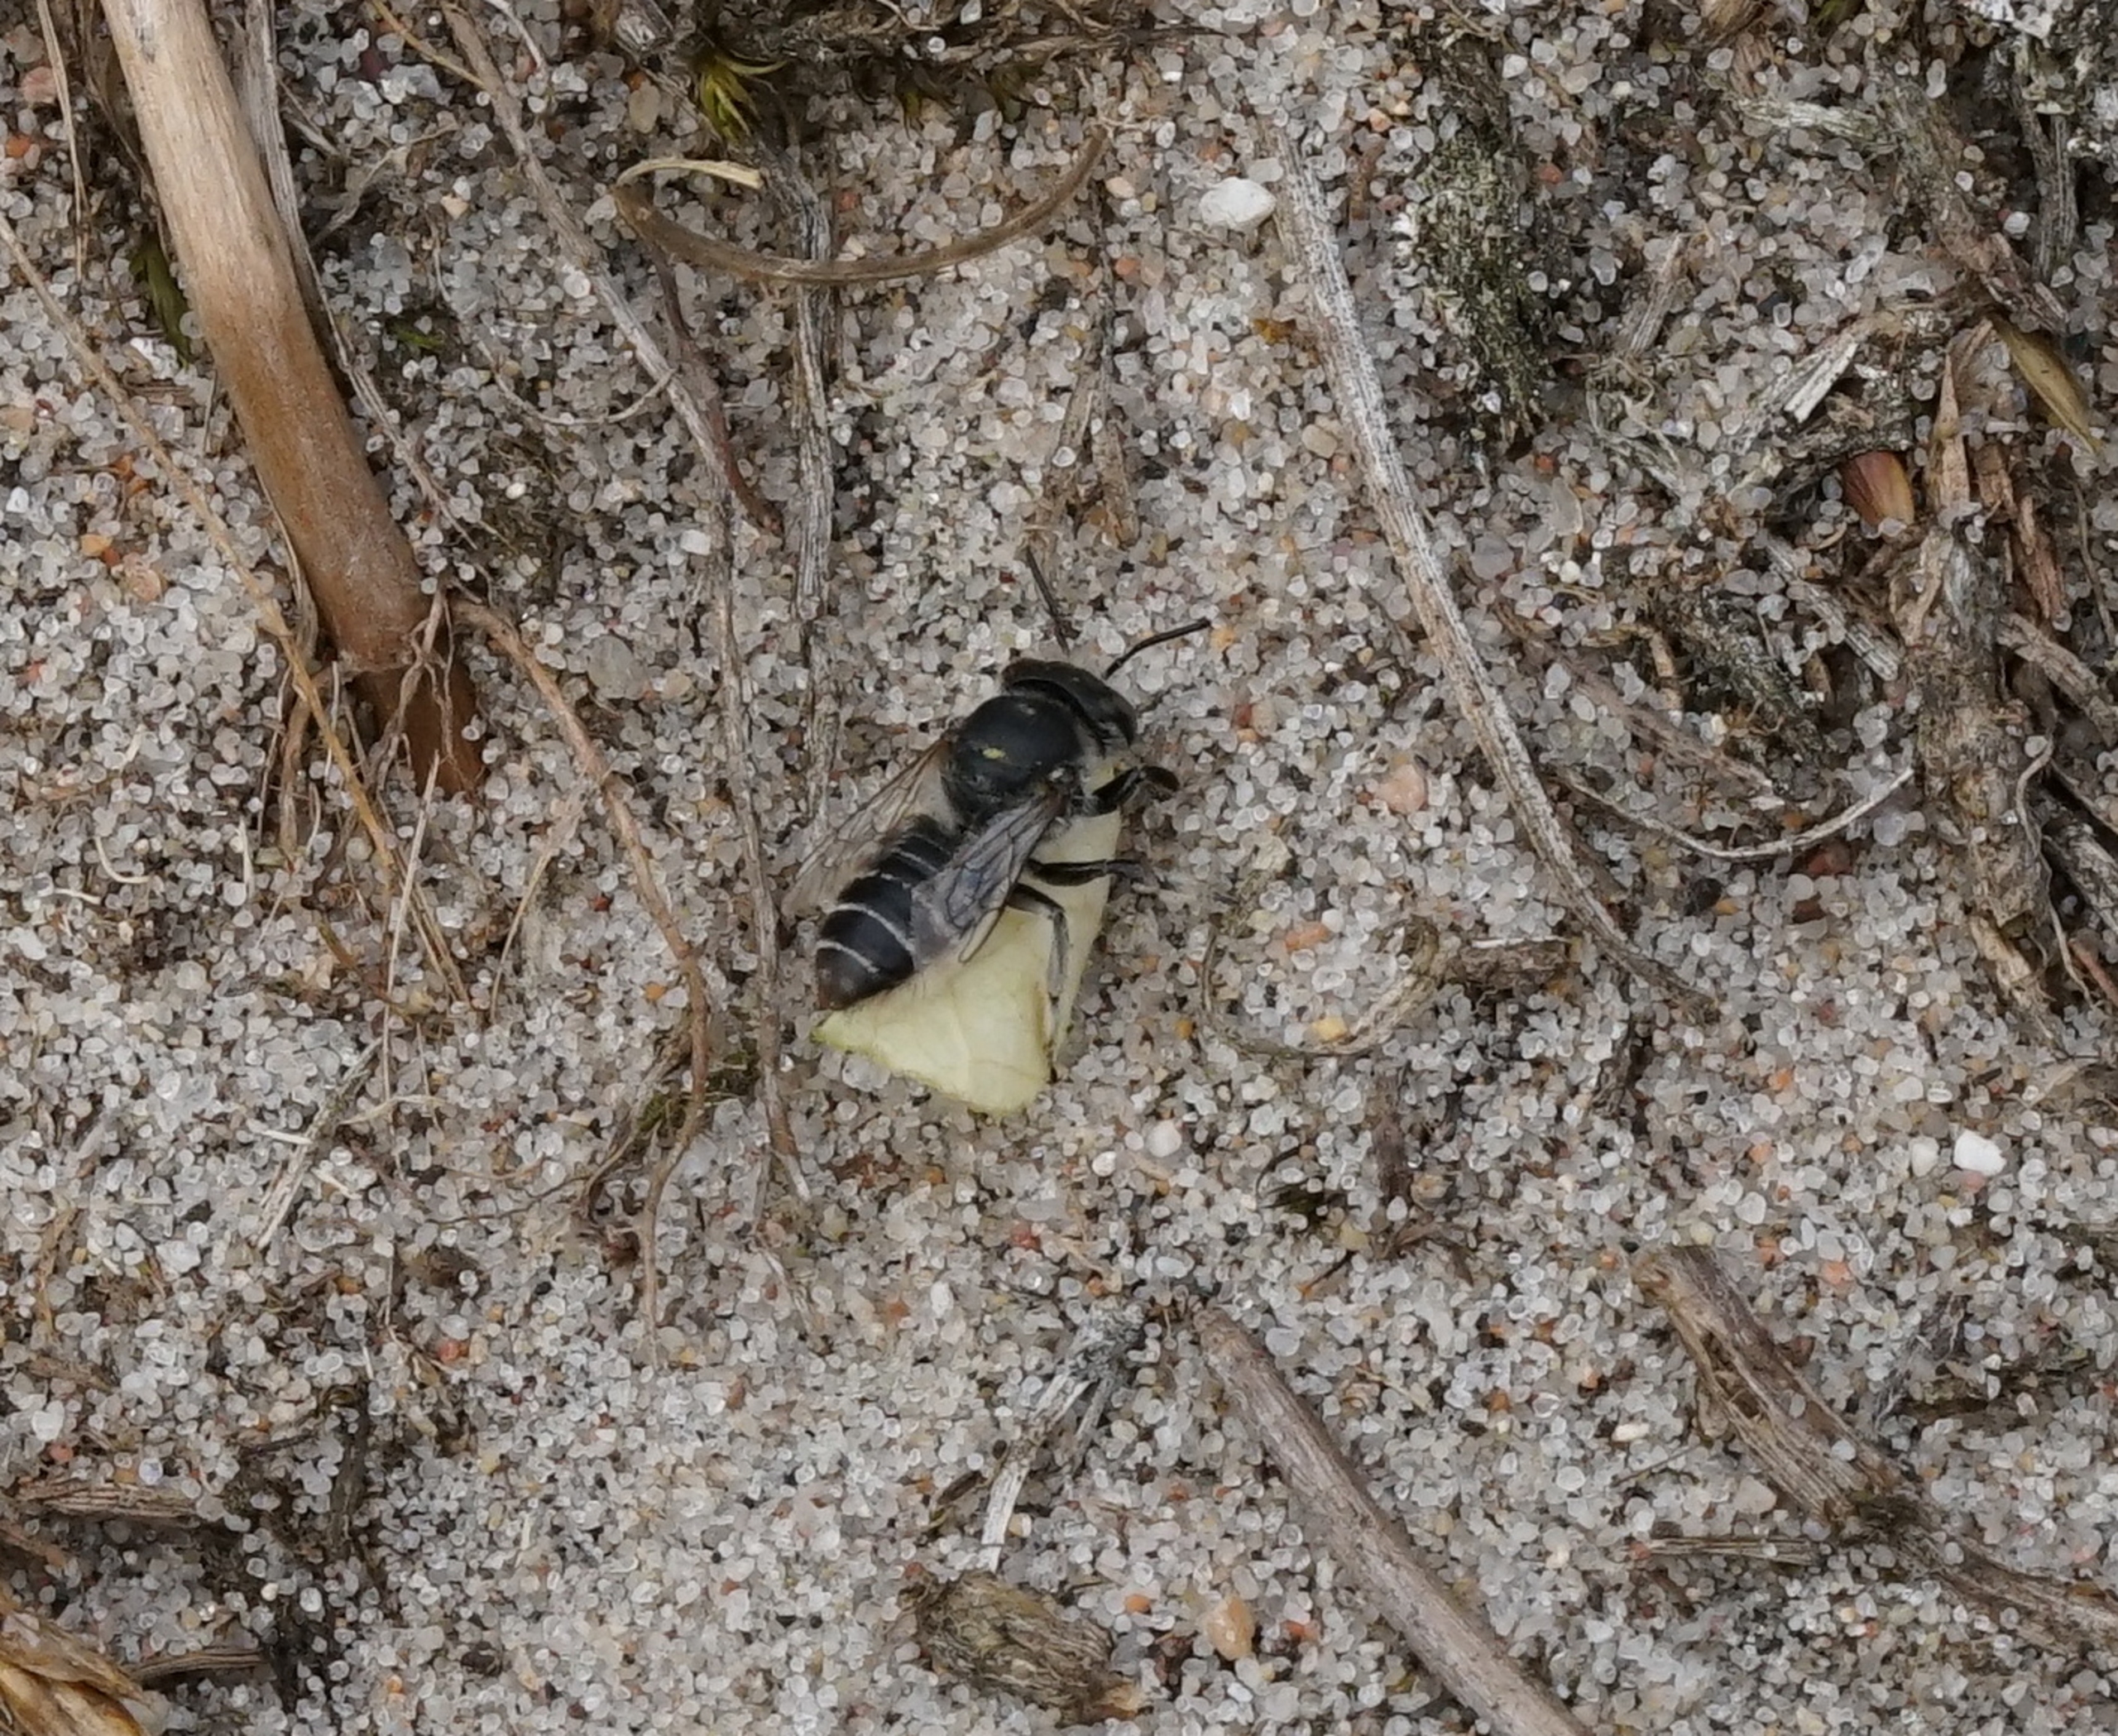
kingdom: Animalia
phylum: Arthropoda
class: Insecta
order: Hymenoptera
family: Megachilidae
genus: Megachile
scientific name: Megachile leachella
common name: Klitbladskærerbi
